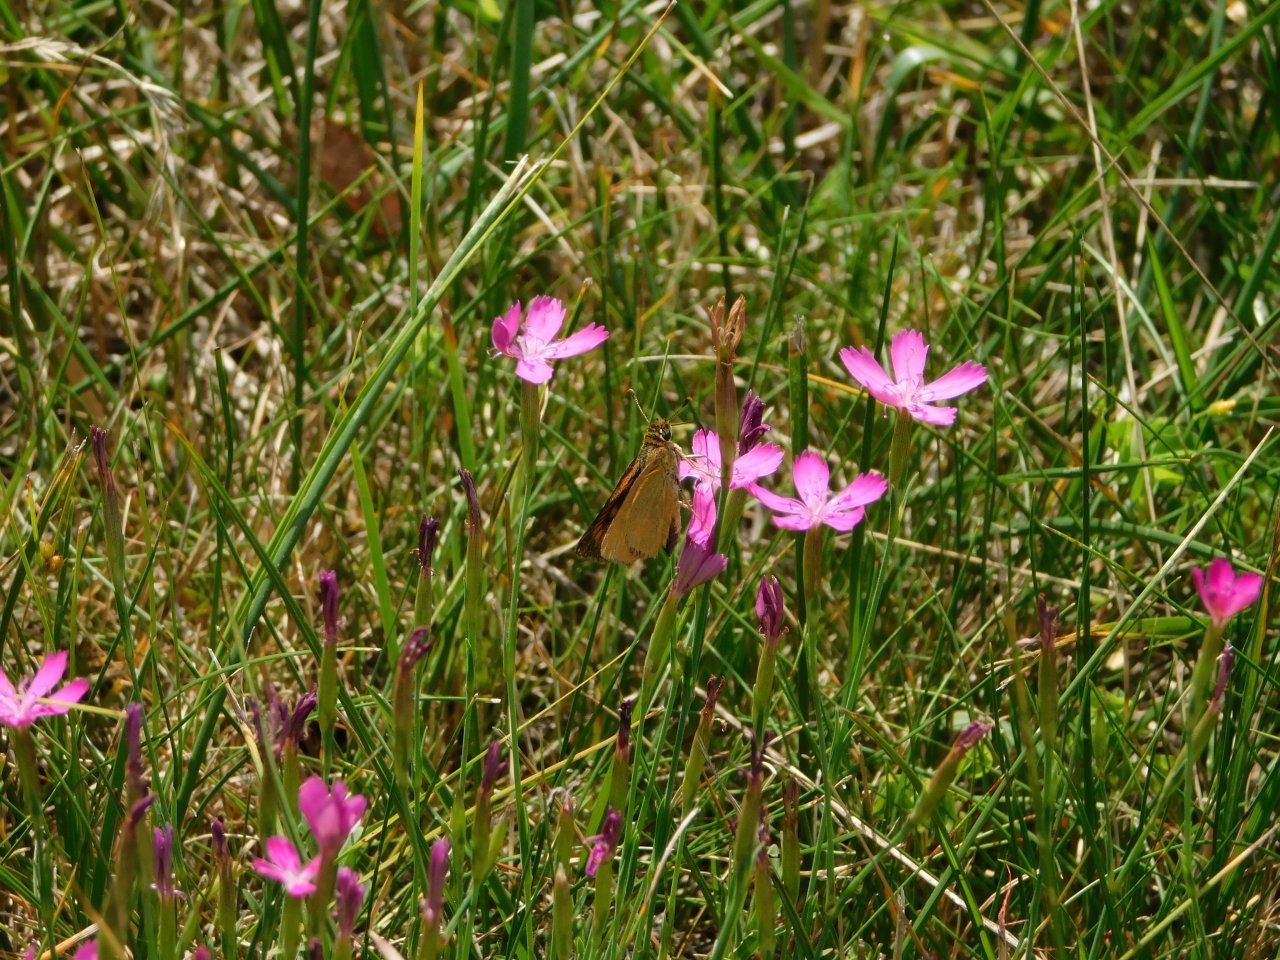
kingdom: Animalia
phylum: Arthropoda
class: Insecta
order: Lepidoptera
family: Hesperiidae
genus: Atrytone
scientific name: Atrytone delaware
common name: Delaware Skipper
